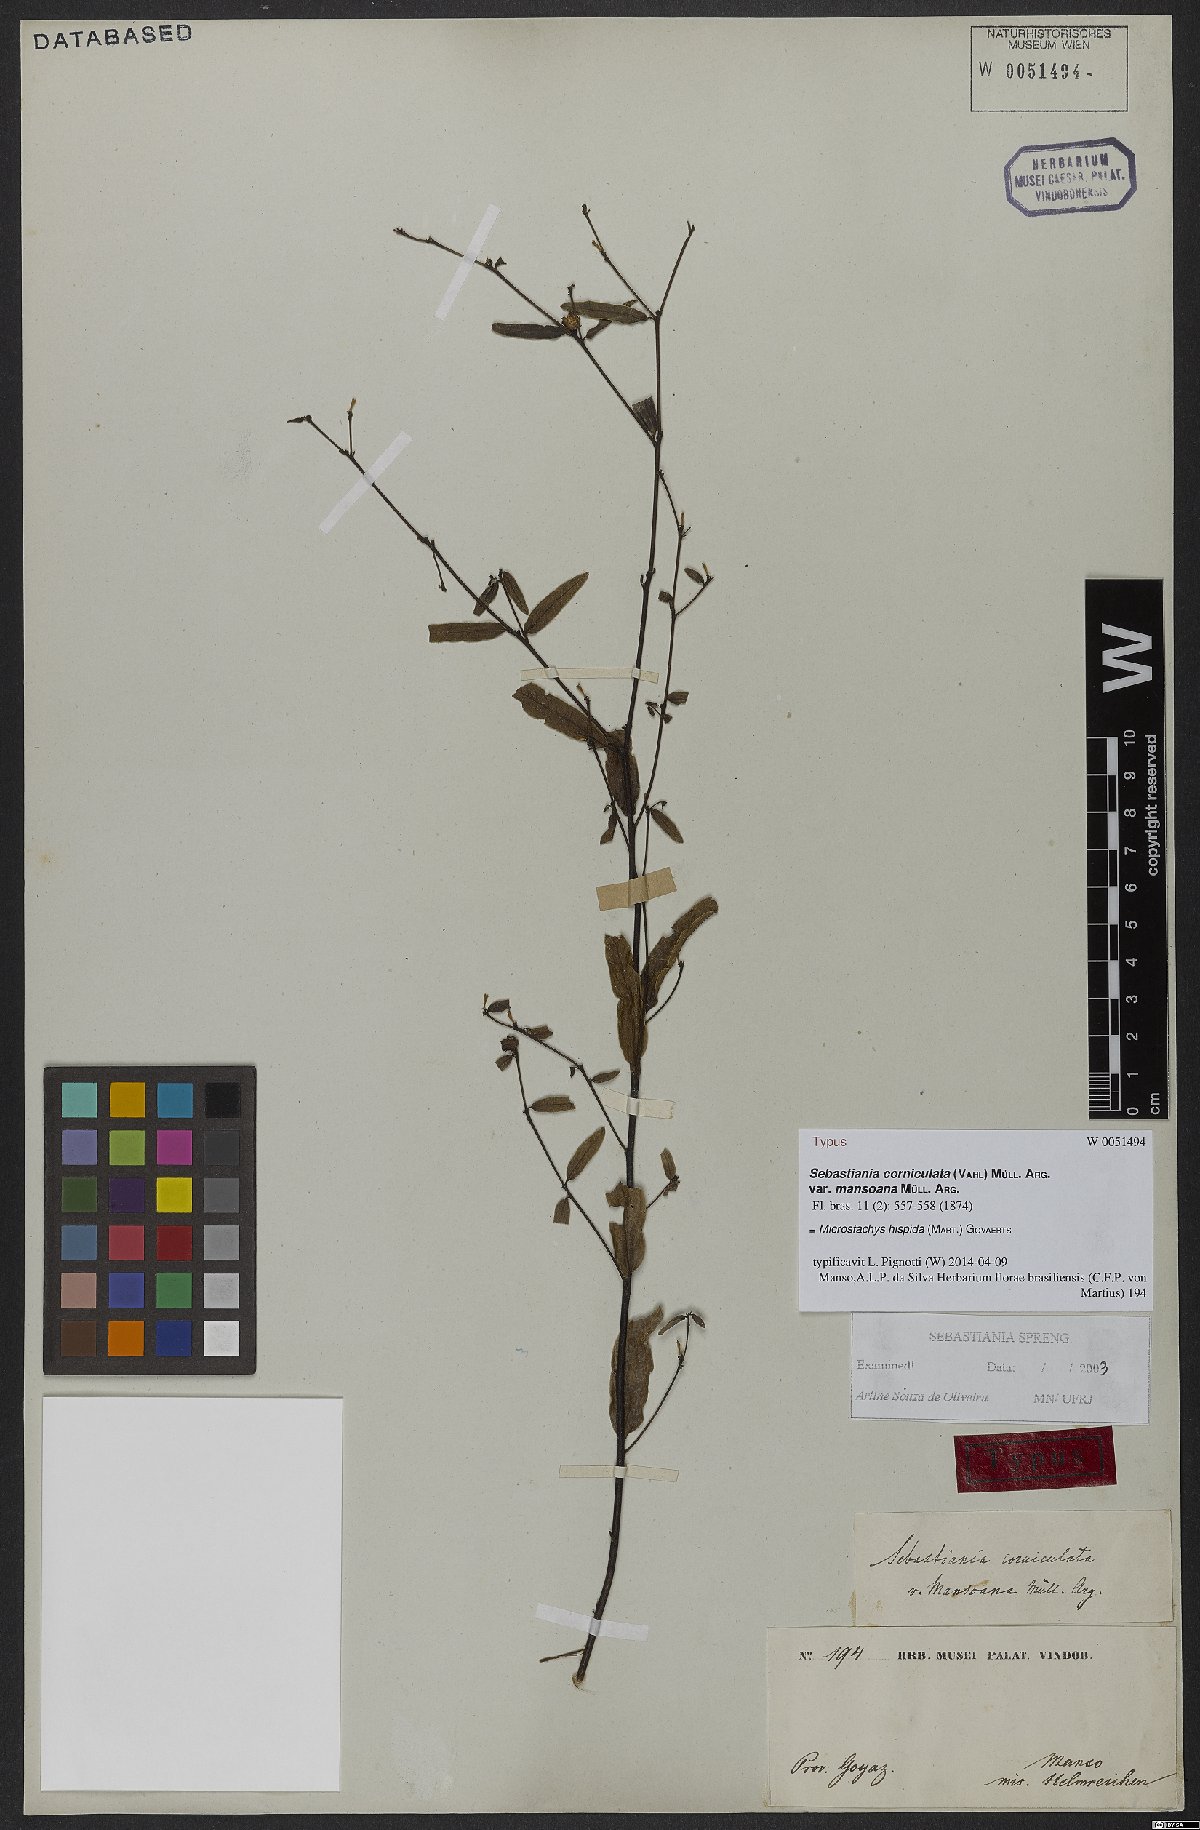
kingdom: Plantae
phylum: Tracheophyta
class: Magnoliopsida
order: Malpighiales
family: Euphorbiaceae
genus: Microstachys
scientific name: Microstachys hispida
